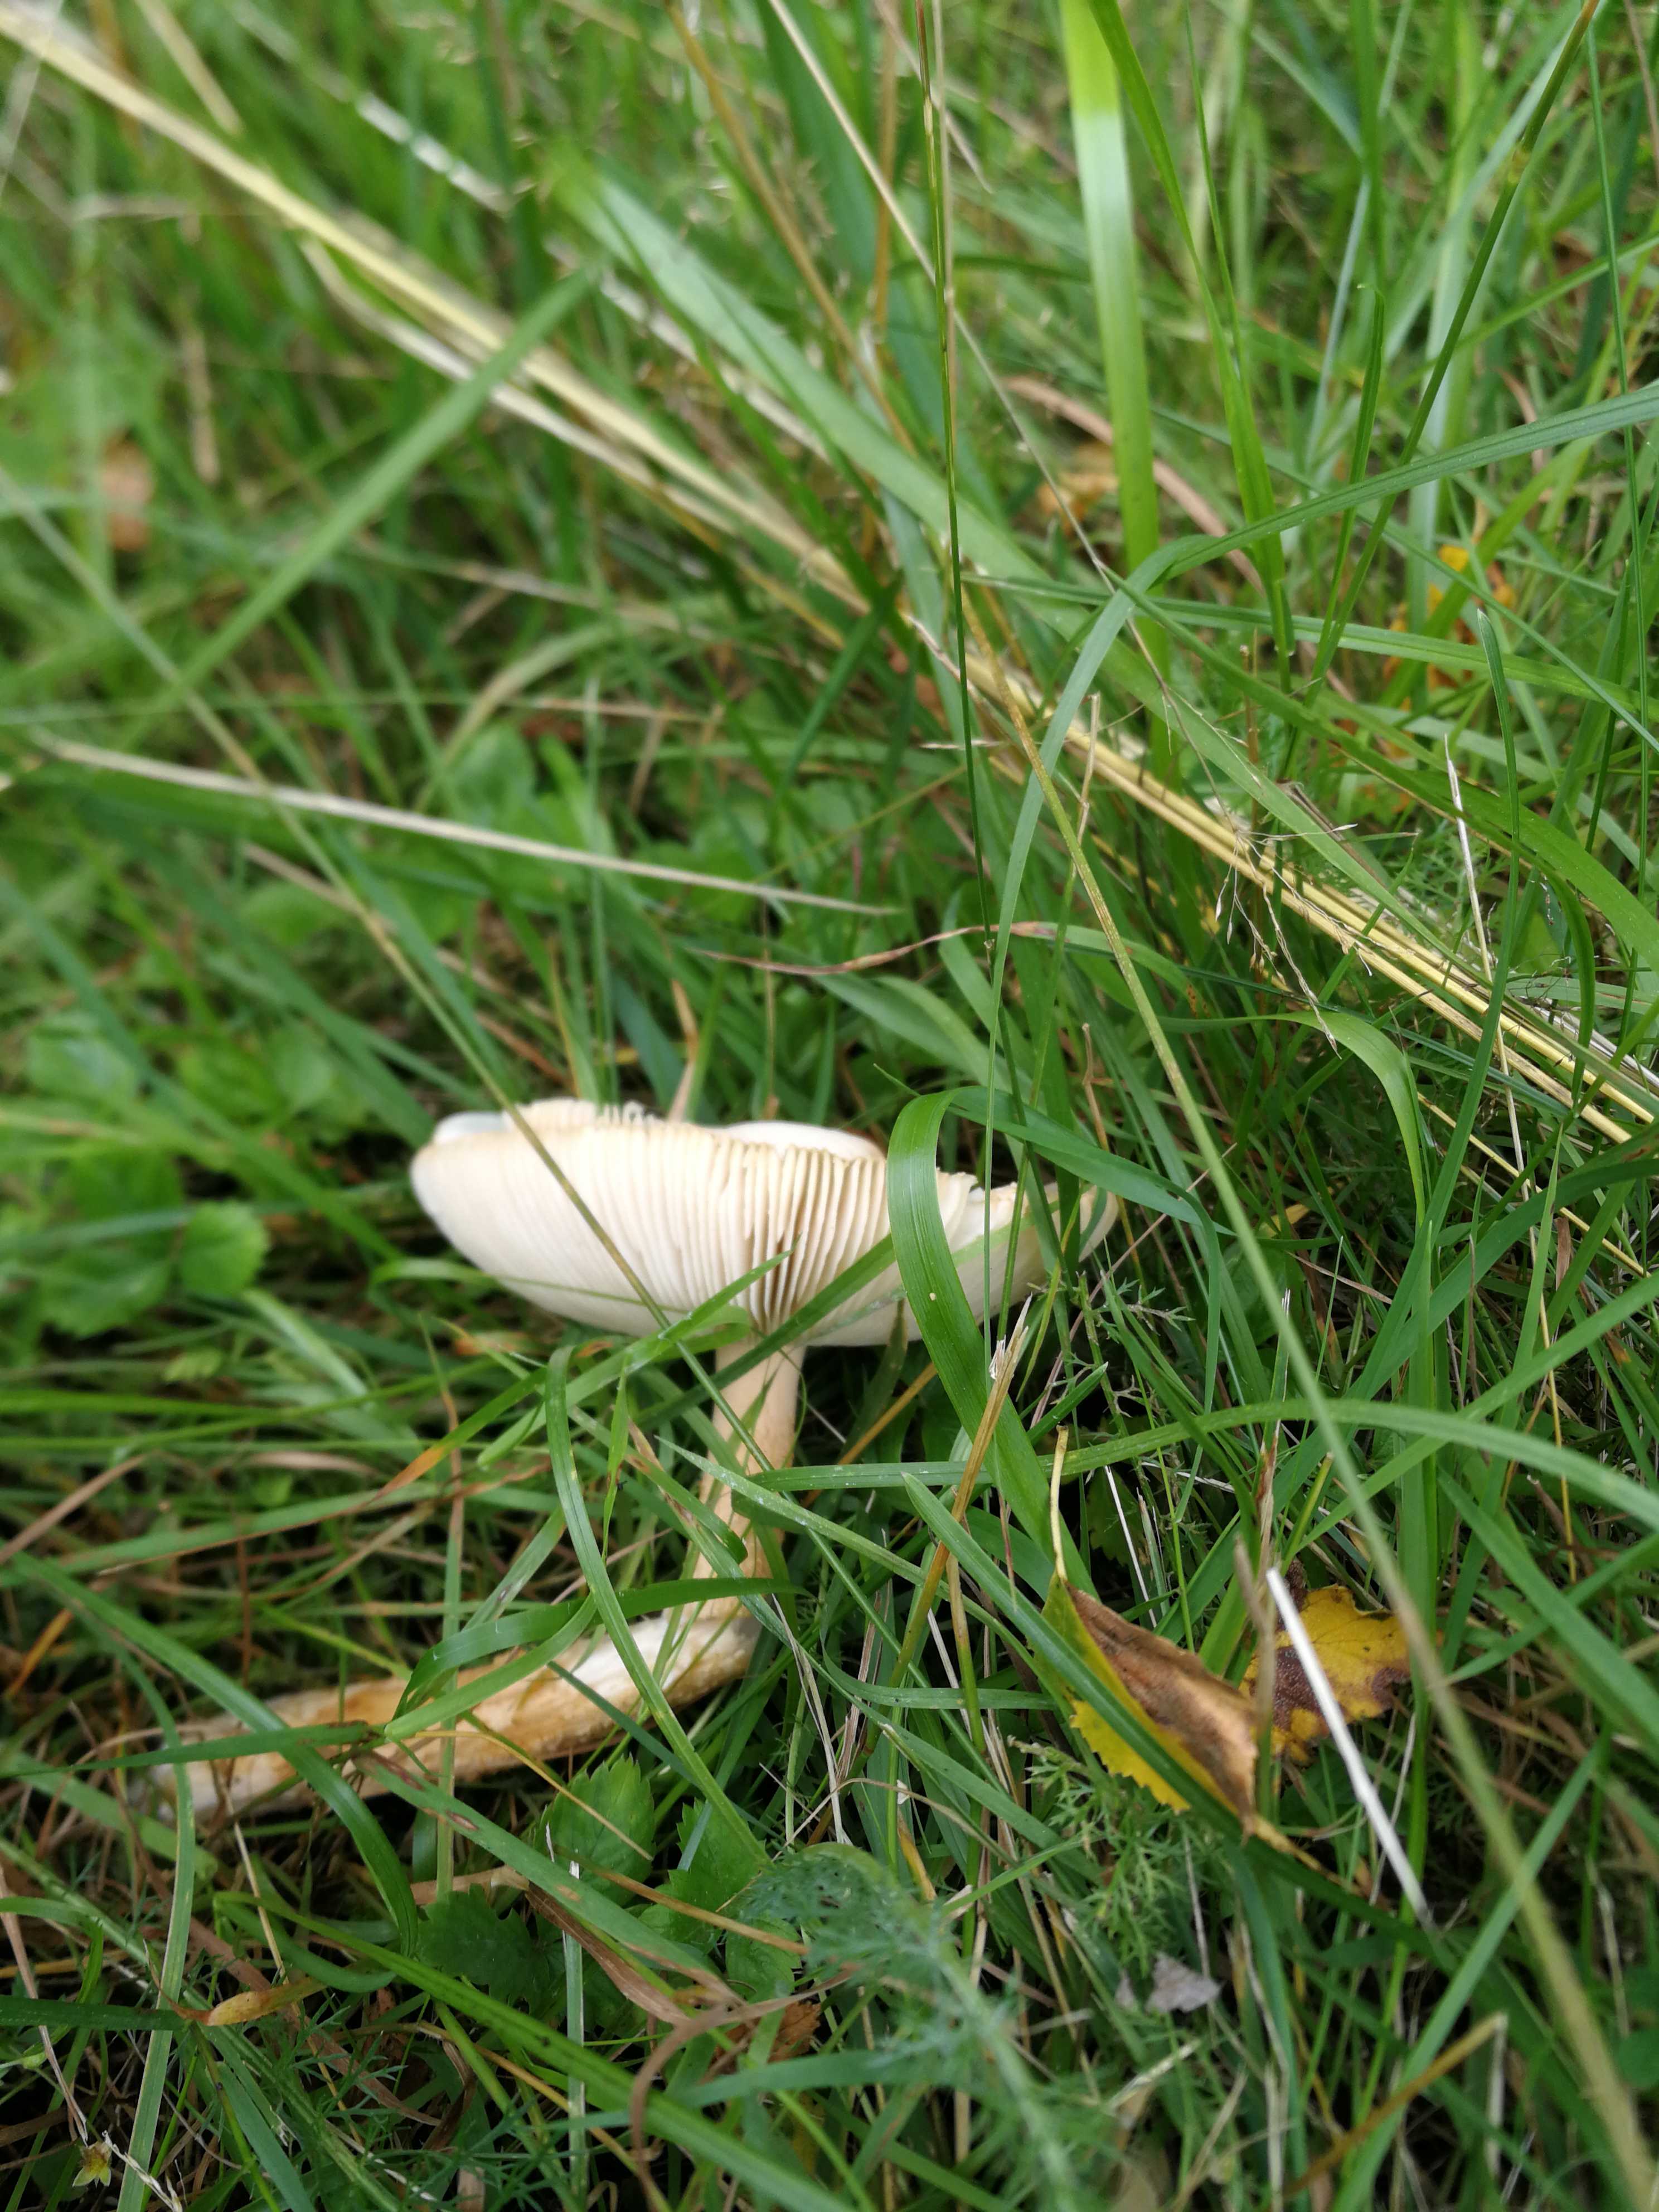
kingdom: Fungi
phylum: Basidiomycota
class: Agaricomycetes
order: Agaricales
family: Amanitaceae
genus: Amanita
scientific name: Amanita
